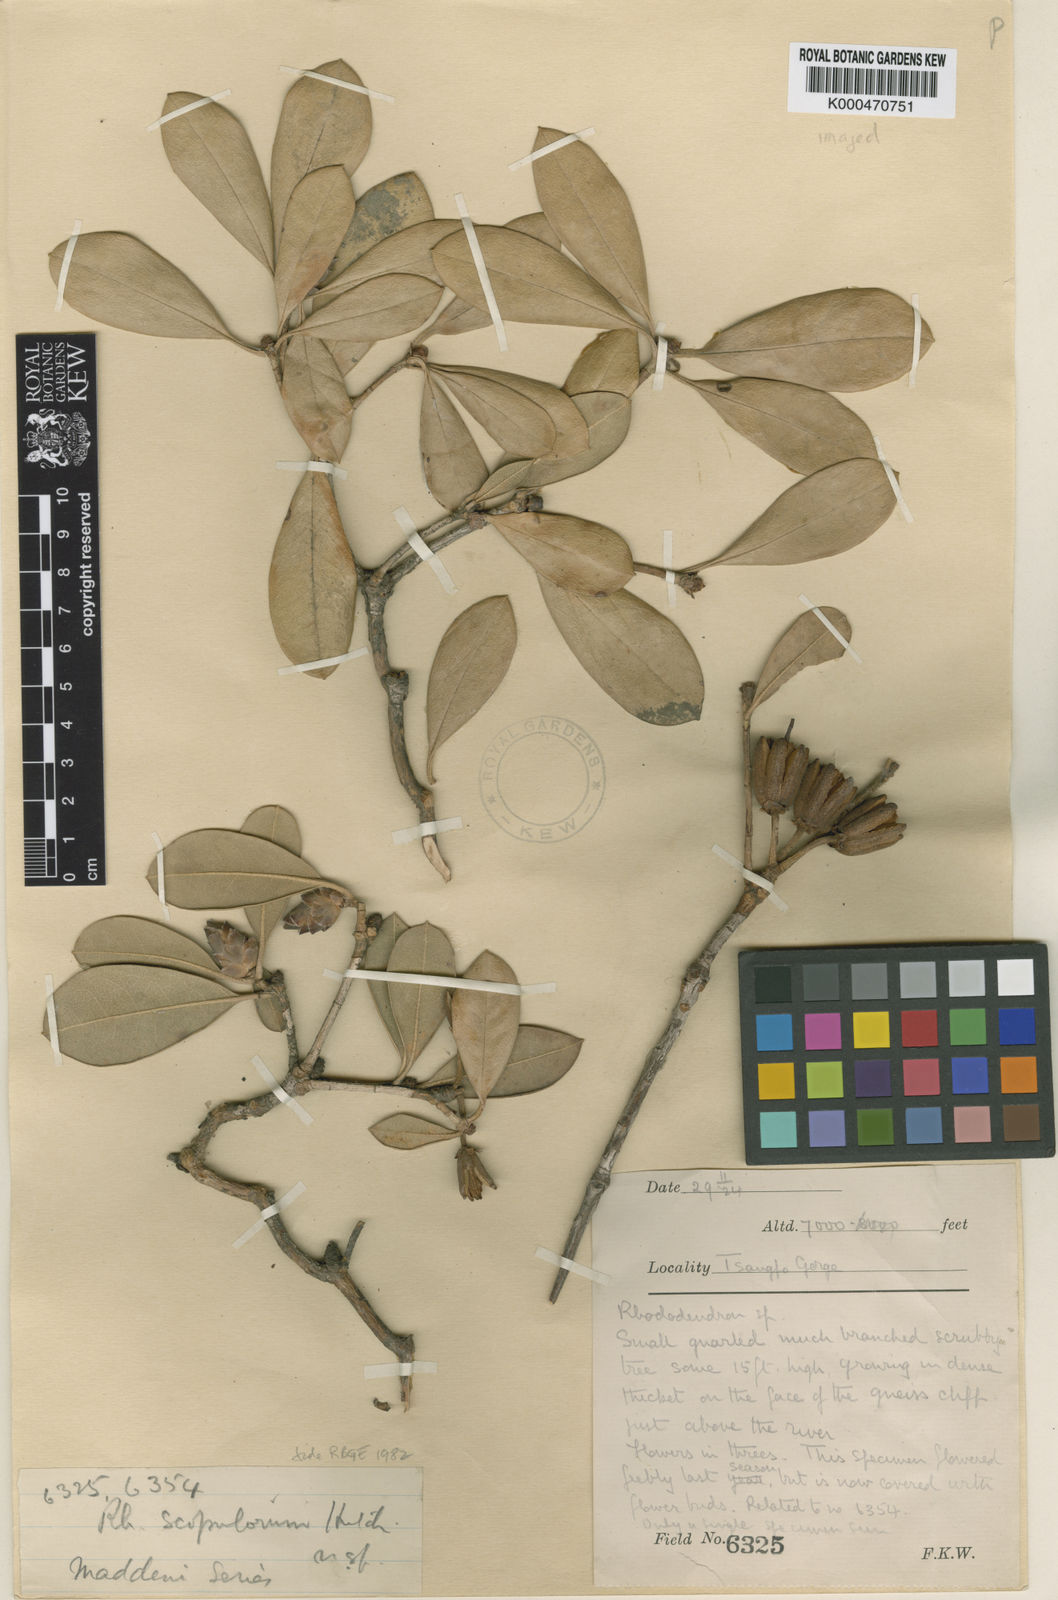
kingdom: Plantae
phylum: Tracheophyta
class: Magnoliopsida
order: Ericales
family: Ericaceae
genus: Rhododendron
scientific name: Rhododendron scopulorum
